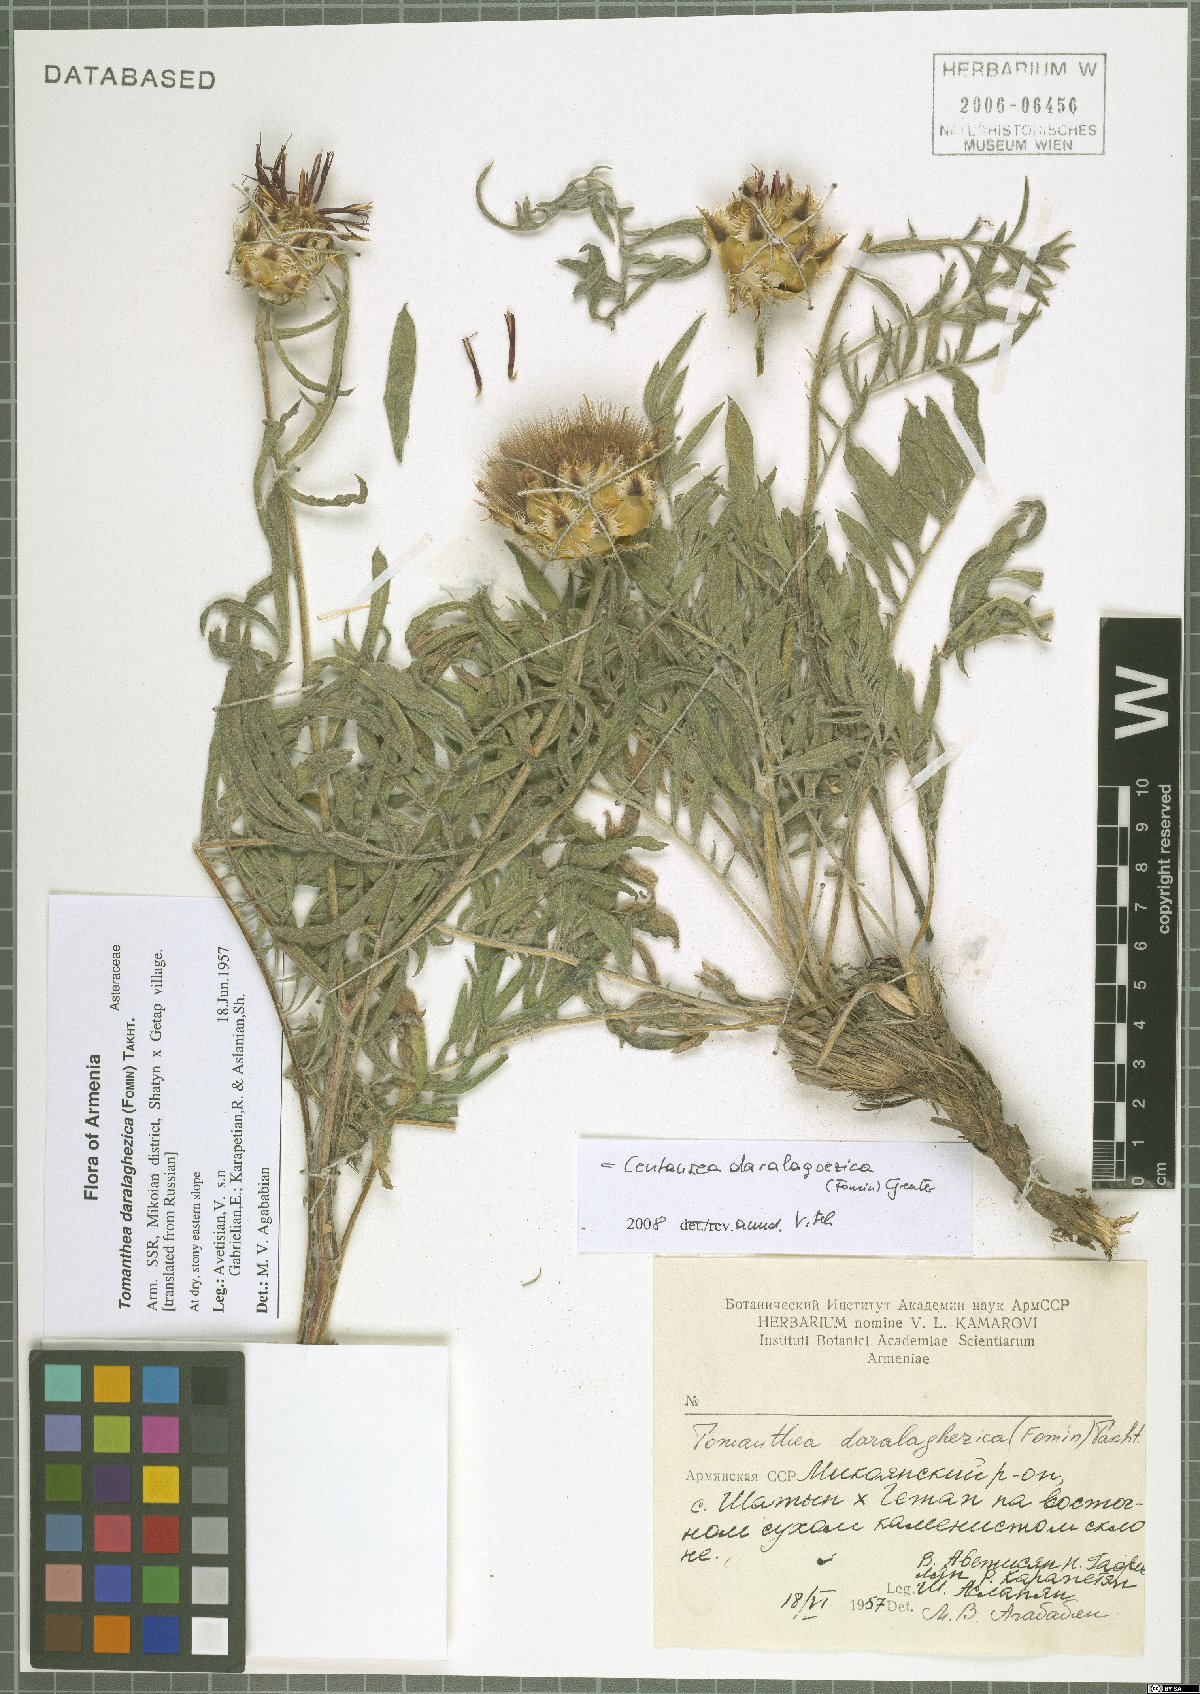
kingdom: Plantae
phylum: Tracheophyta
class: Magnoliopsida
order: Asterales
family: Asteraceae
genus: Centaurea
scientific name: Centaurea daralagoezica
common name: Daralagezian tomanthea
